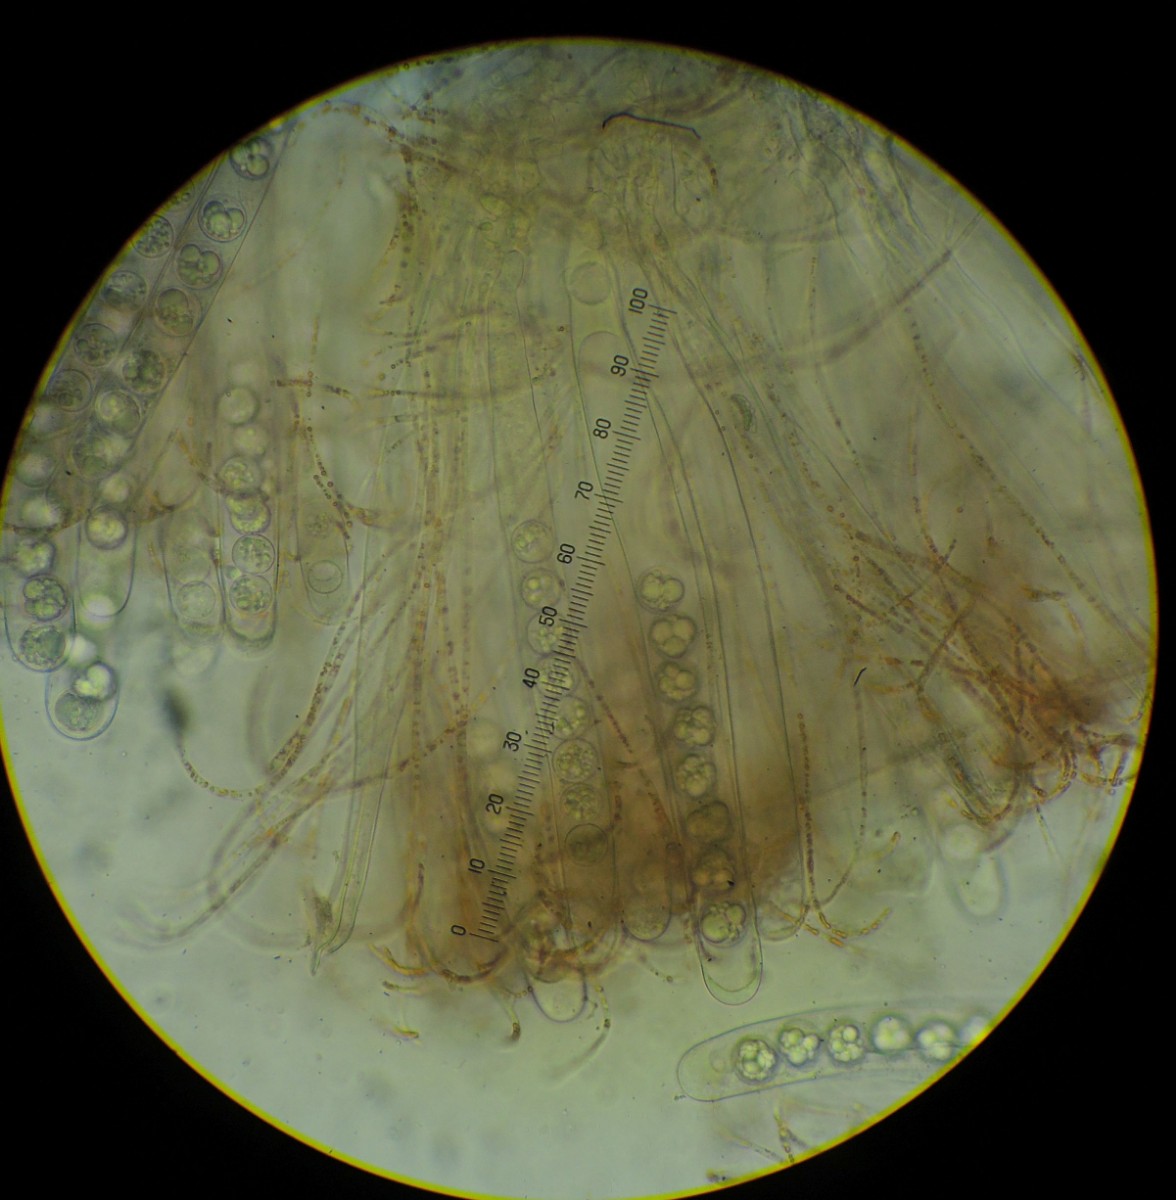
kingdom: Fungi
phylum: Ascomycota
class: Pezizomycetes
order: Pezizales
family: Pulvinulaceae
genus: Pulvinula
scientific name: Pulvinula miltina
